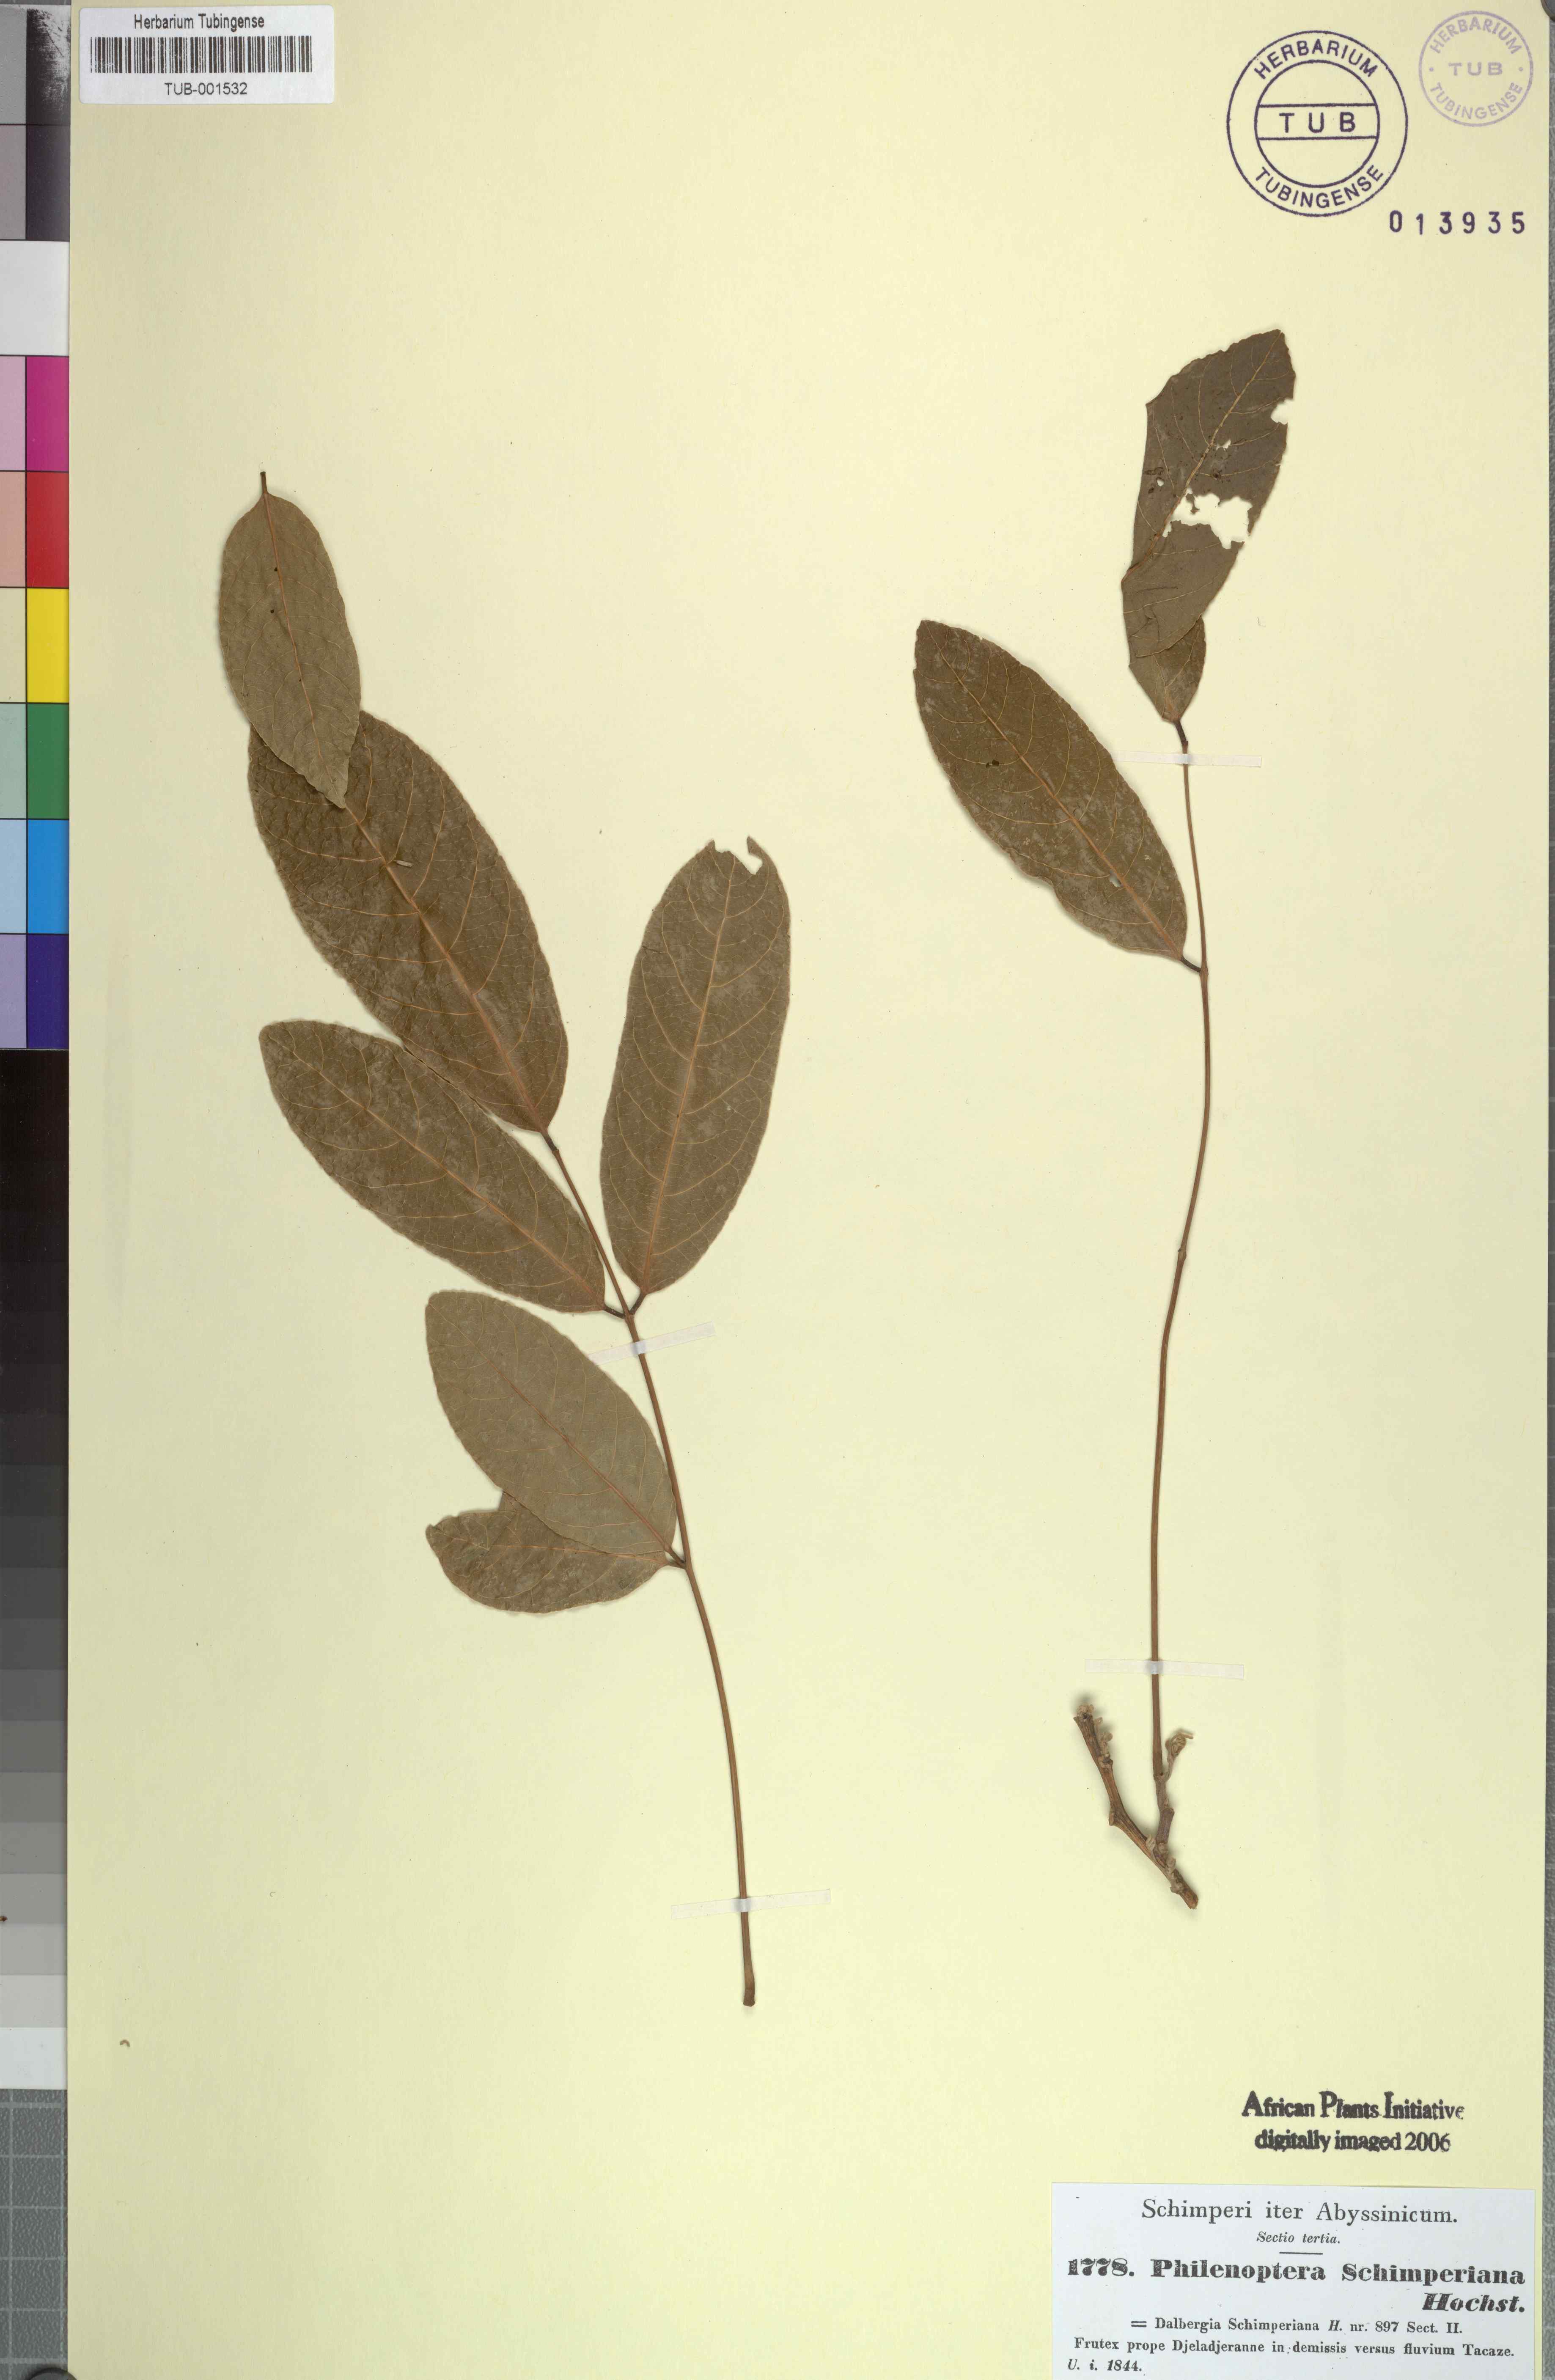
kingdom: Plantae
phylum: Tracheophyta
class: Magnoliopsida
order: Fabales
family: Fabaceae
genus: Philenoptera
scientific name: Philenoptera laxiflora
